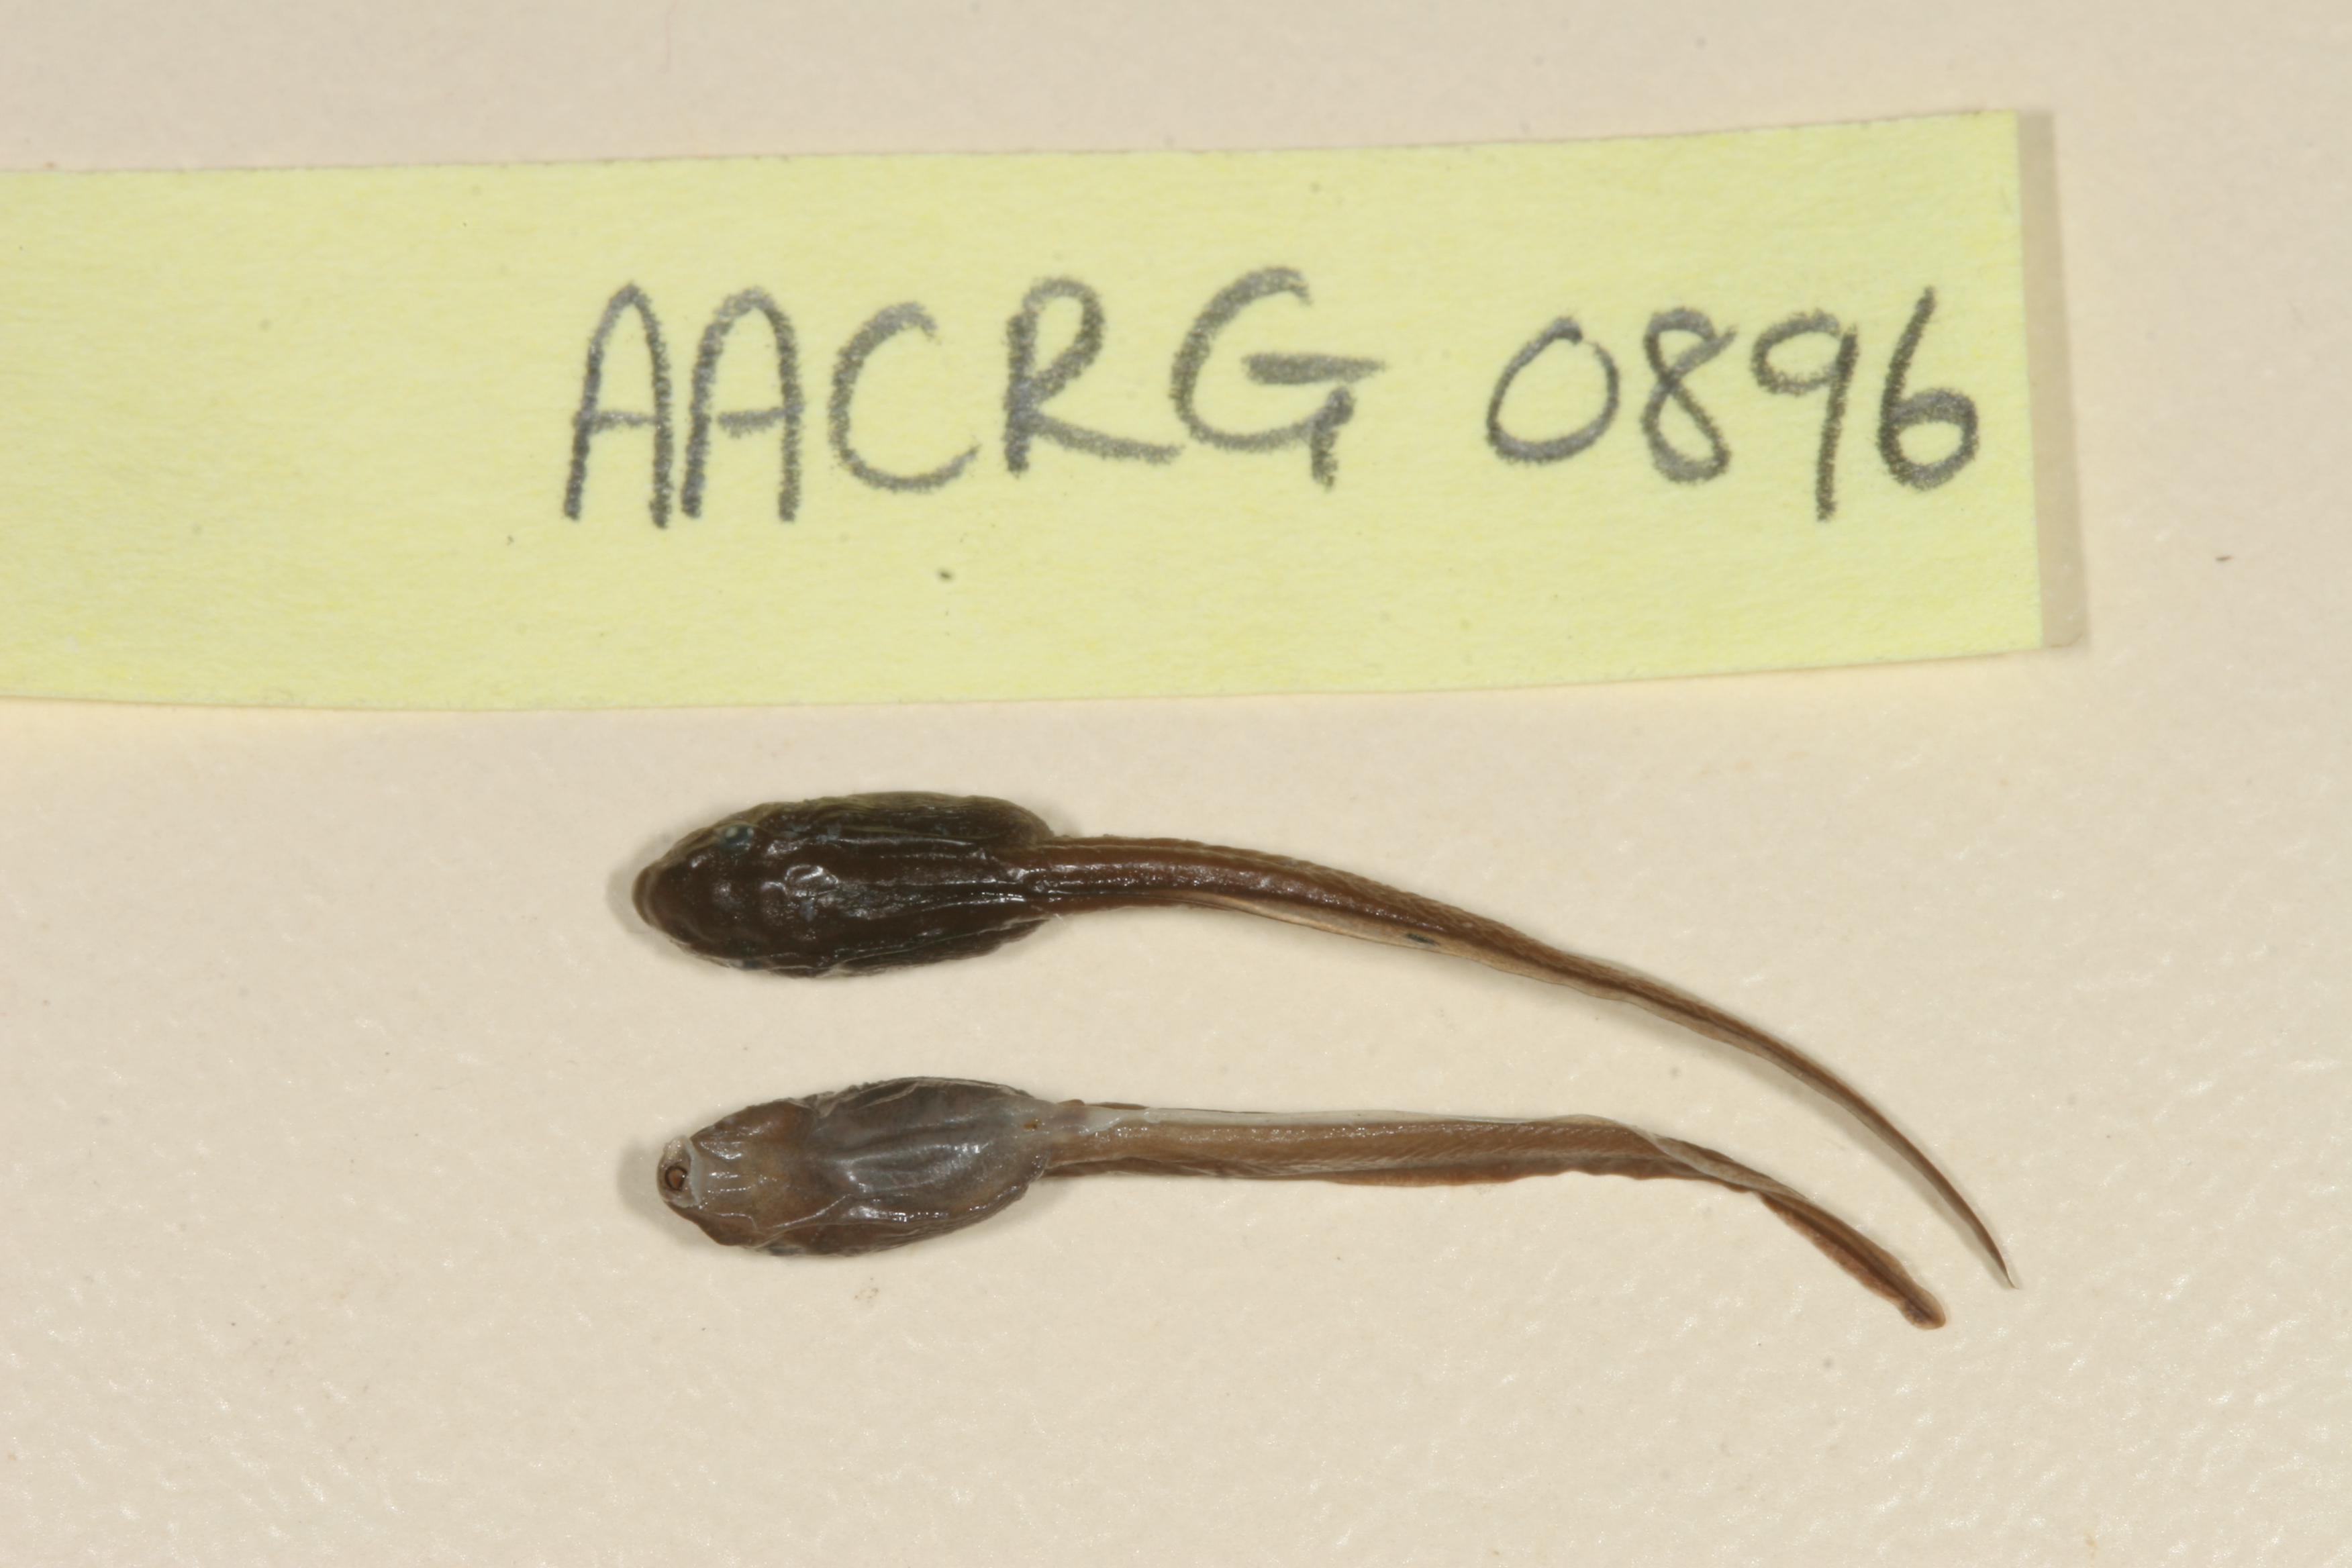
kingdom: Animalia
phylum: Chordata
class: Amphibia
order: Anura
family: Arthroleptidae
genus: Leptopelis
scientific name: Leptopelis xenodactylus
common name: Long-toed tree frog
